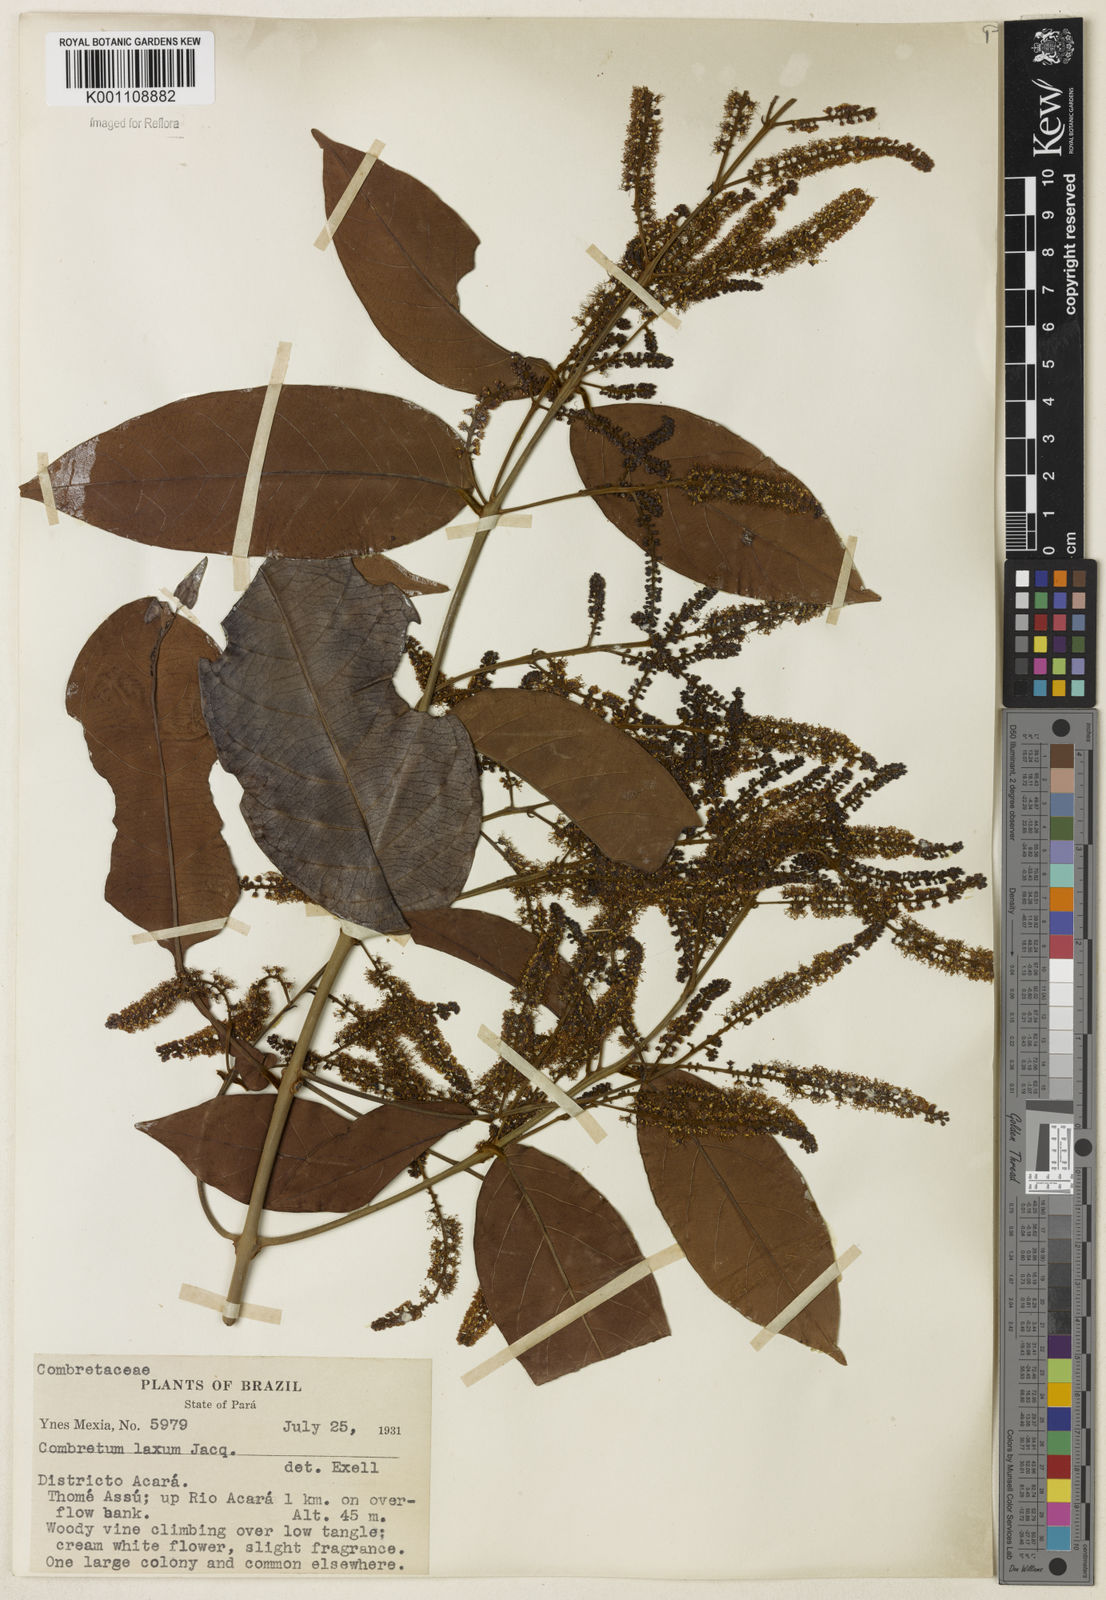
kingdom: Plantae
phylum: Tracheophyta
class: Magnoliopsida
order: Myrtales
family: Combretaceae
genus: Combretum
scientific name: Combretum laxum
